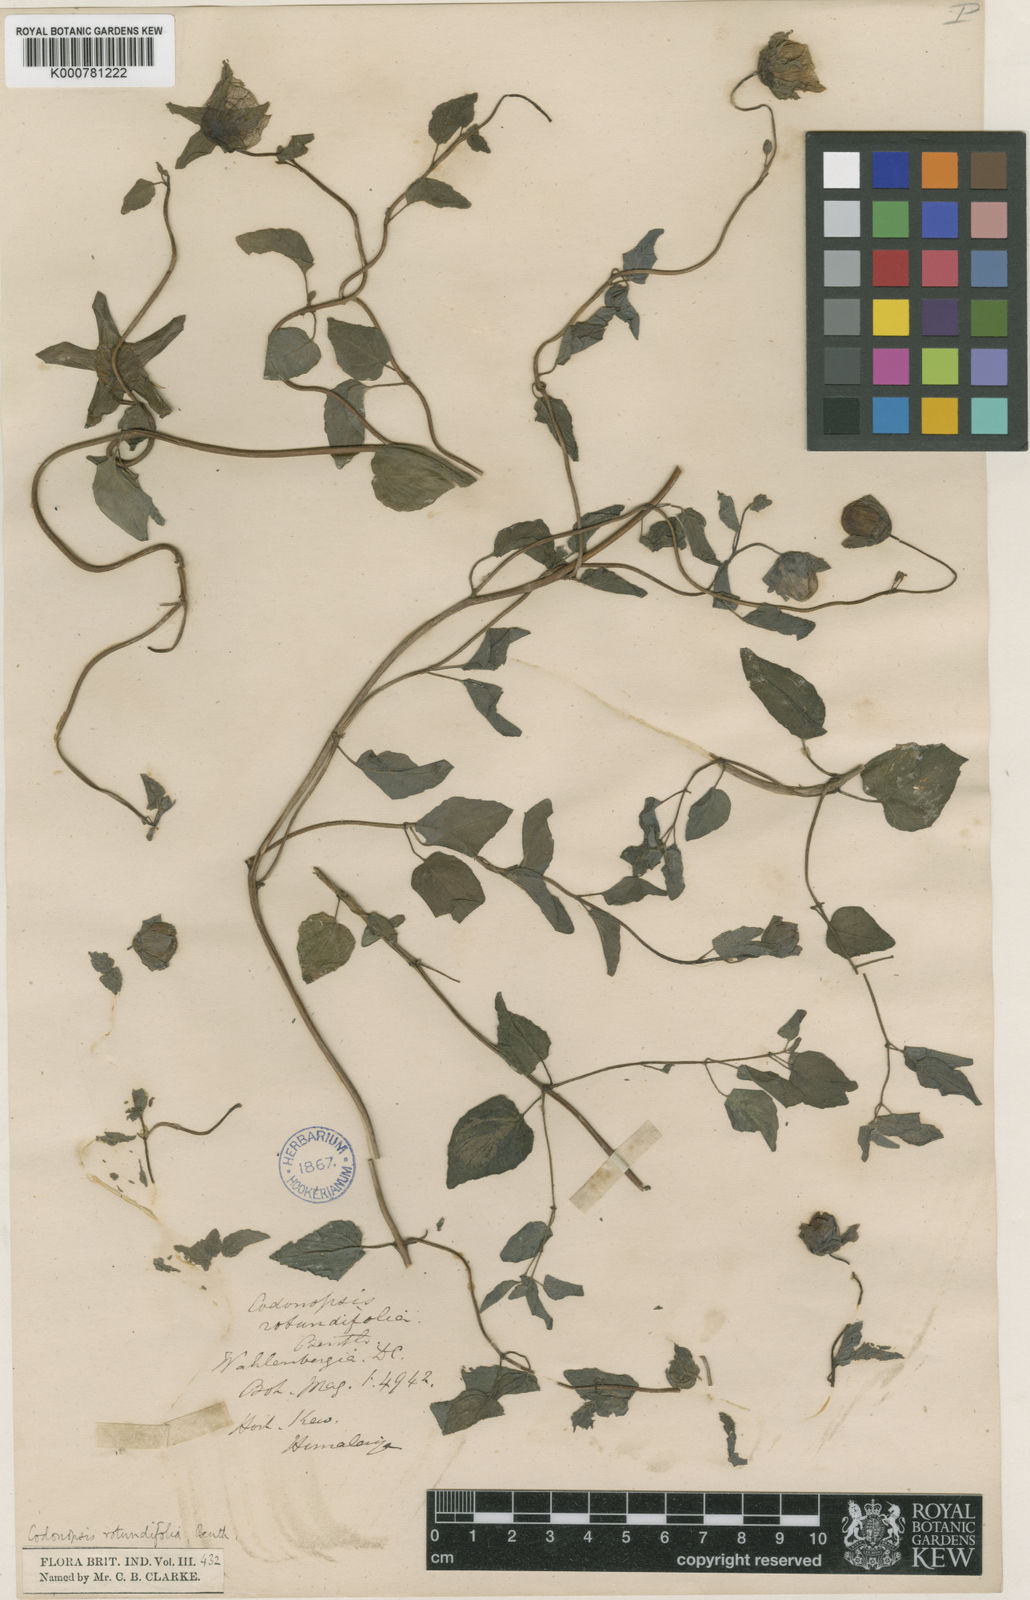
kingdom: Plantae
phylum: Tracheophyta
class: Magnoliopsida
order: Asterales
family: Campanulaceae
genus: Codonopsis
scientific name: Codonopsis rotundifolia
